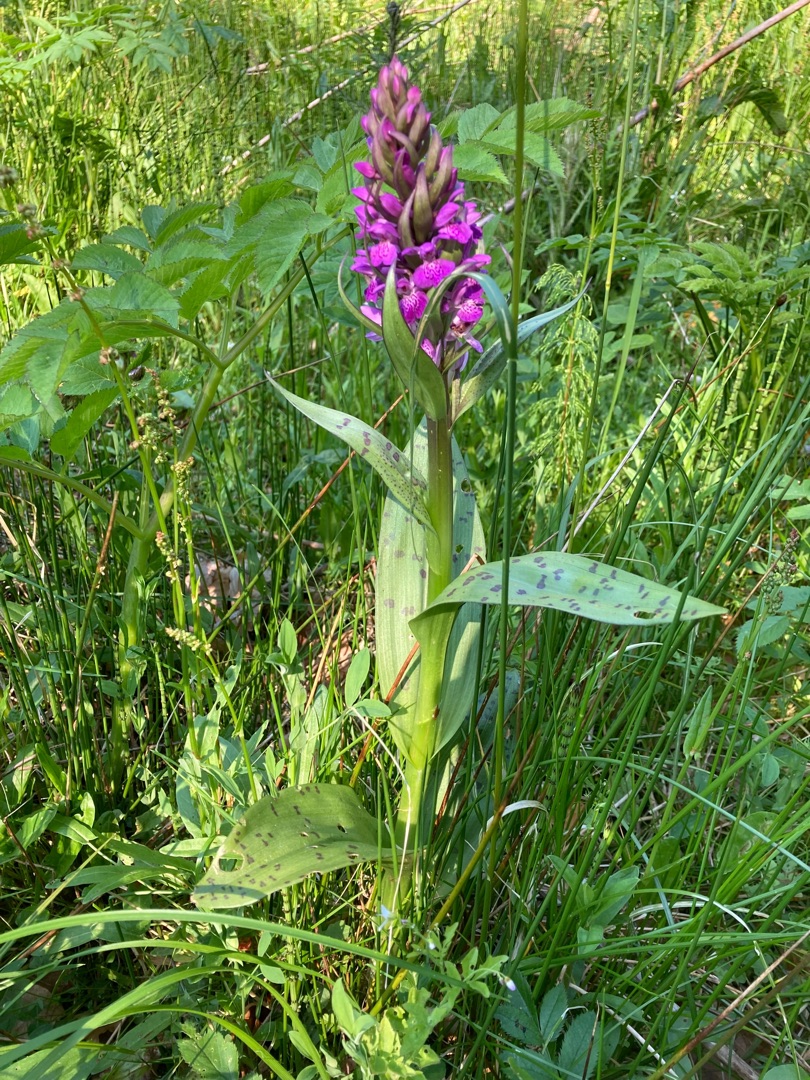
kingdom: Plantae
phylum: Tracheophyta
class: Liliopsida
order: Asparagales
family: Orchidaceae
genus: Dactylorhiza
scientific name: Dactylorhiza majalis
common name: Maj-gøgeurt
